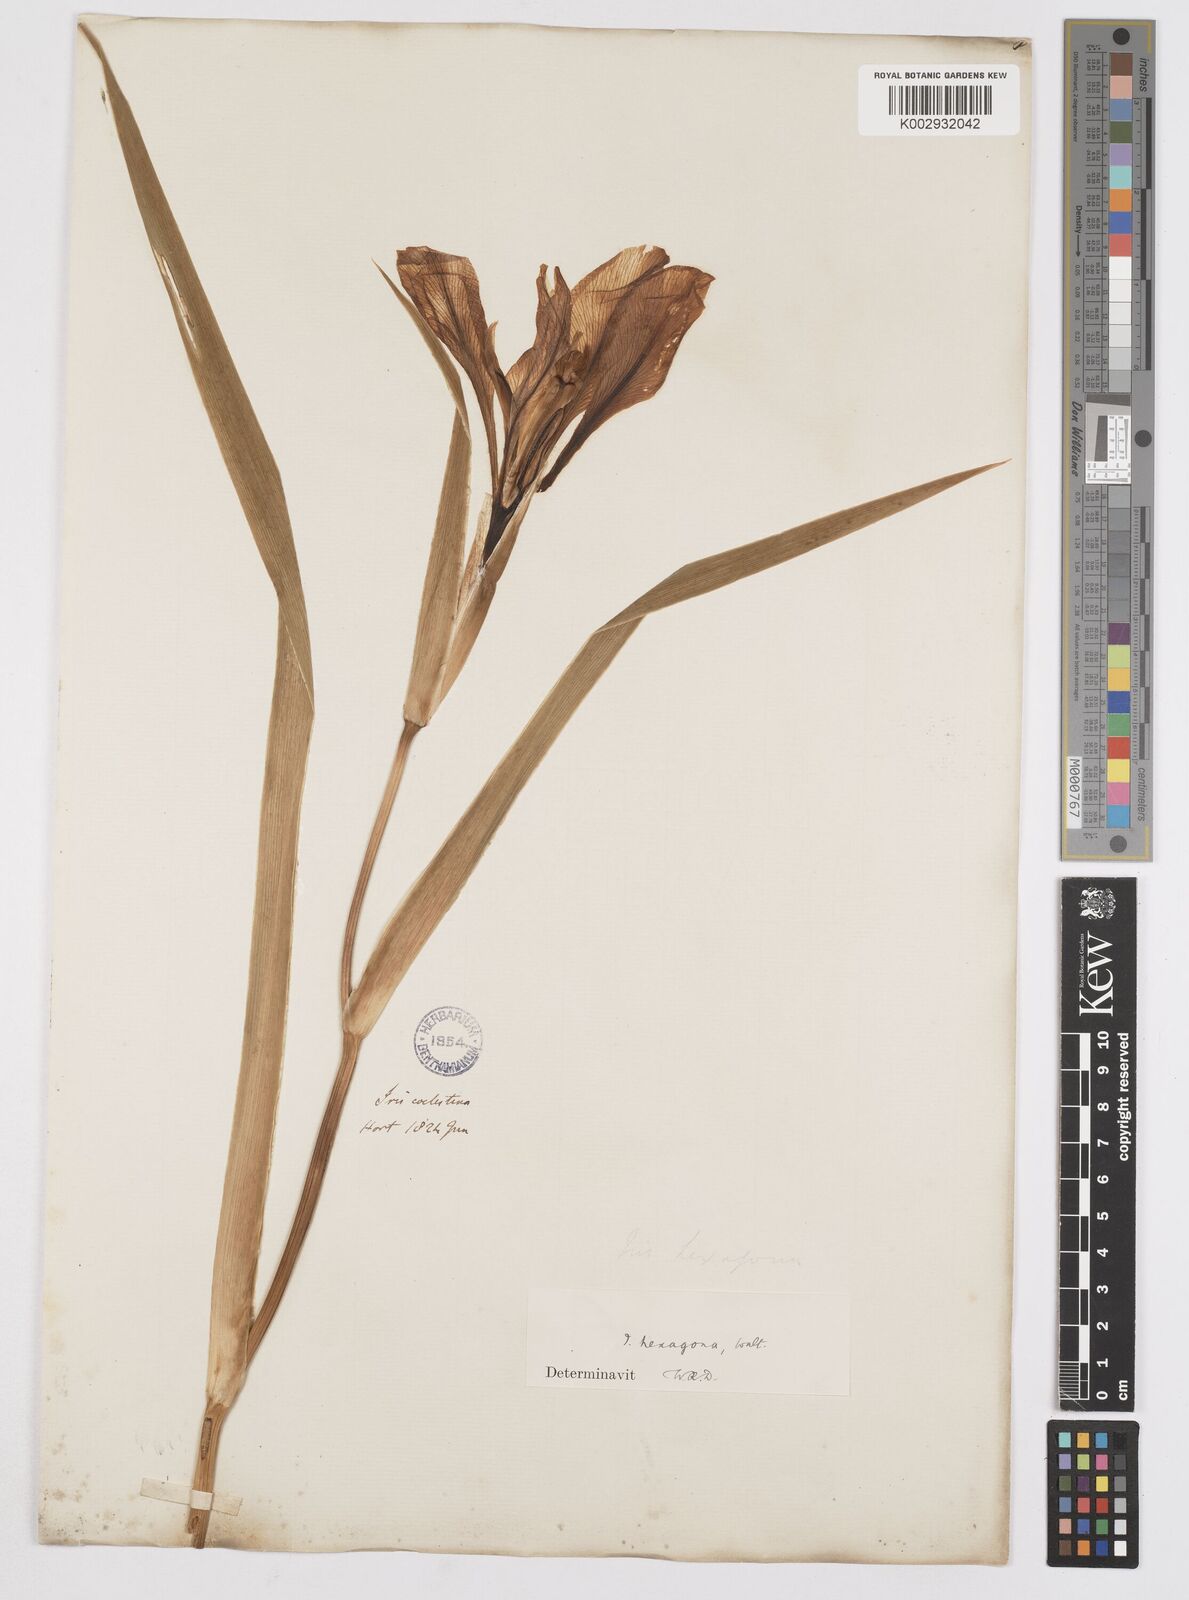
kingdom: Plantae
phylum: Tracheophyta
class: Liliopsida
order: Asparagales
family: Iridaceae
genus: Iris
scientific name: Iris hexagona
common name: Carolina iris
